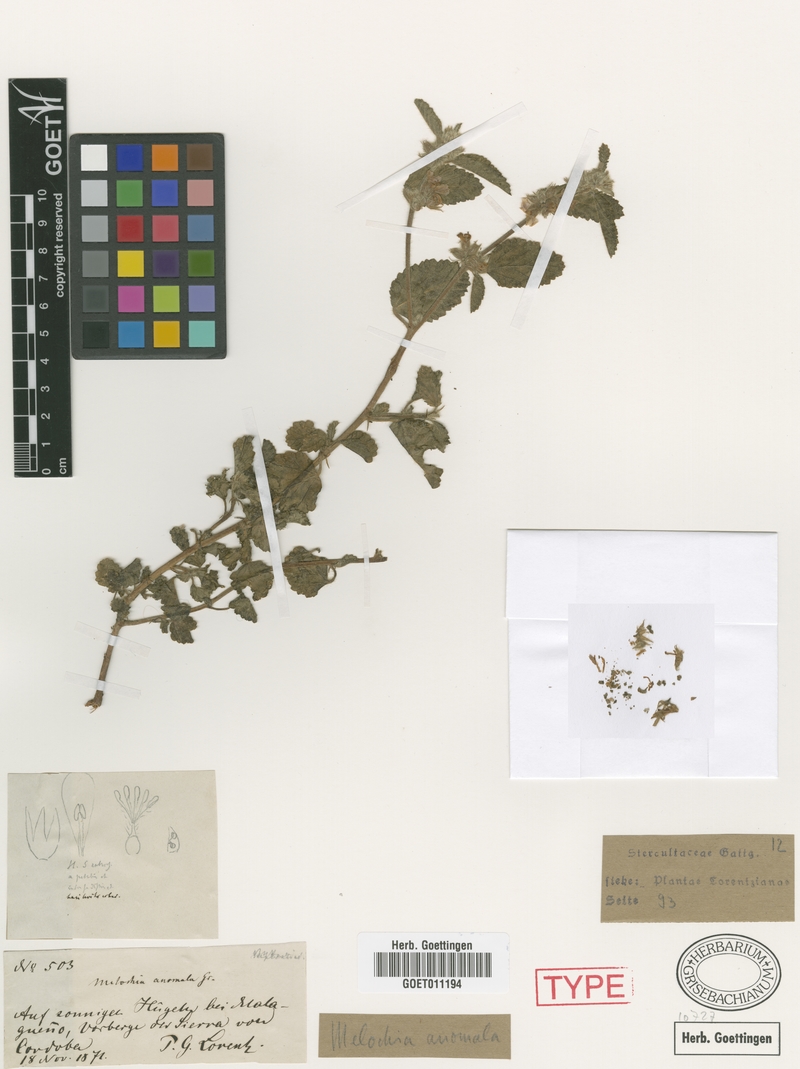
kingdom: Plantae
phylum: Tracheophyta
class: Magnoliopsida
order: Malvales
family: Malvaceae
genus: Melochia
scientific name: Melochia anomala
